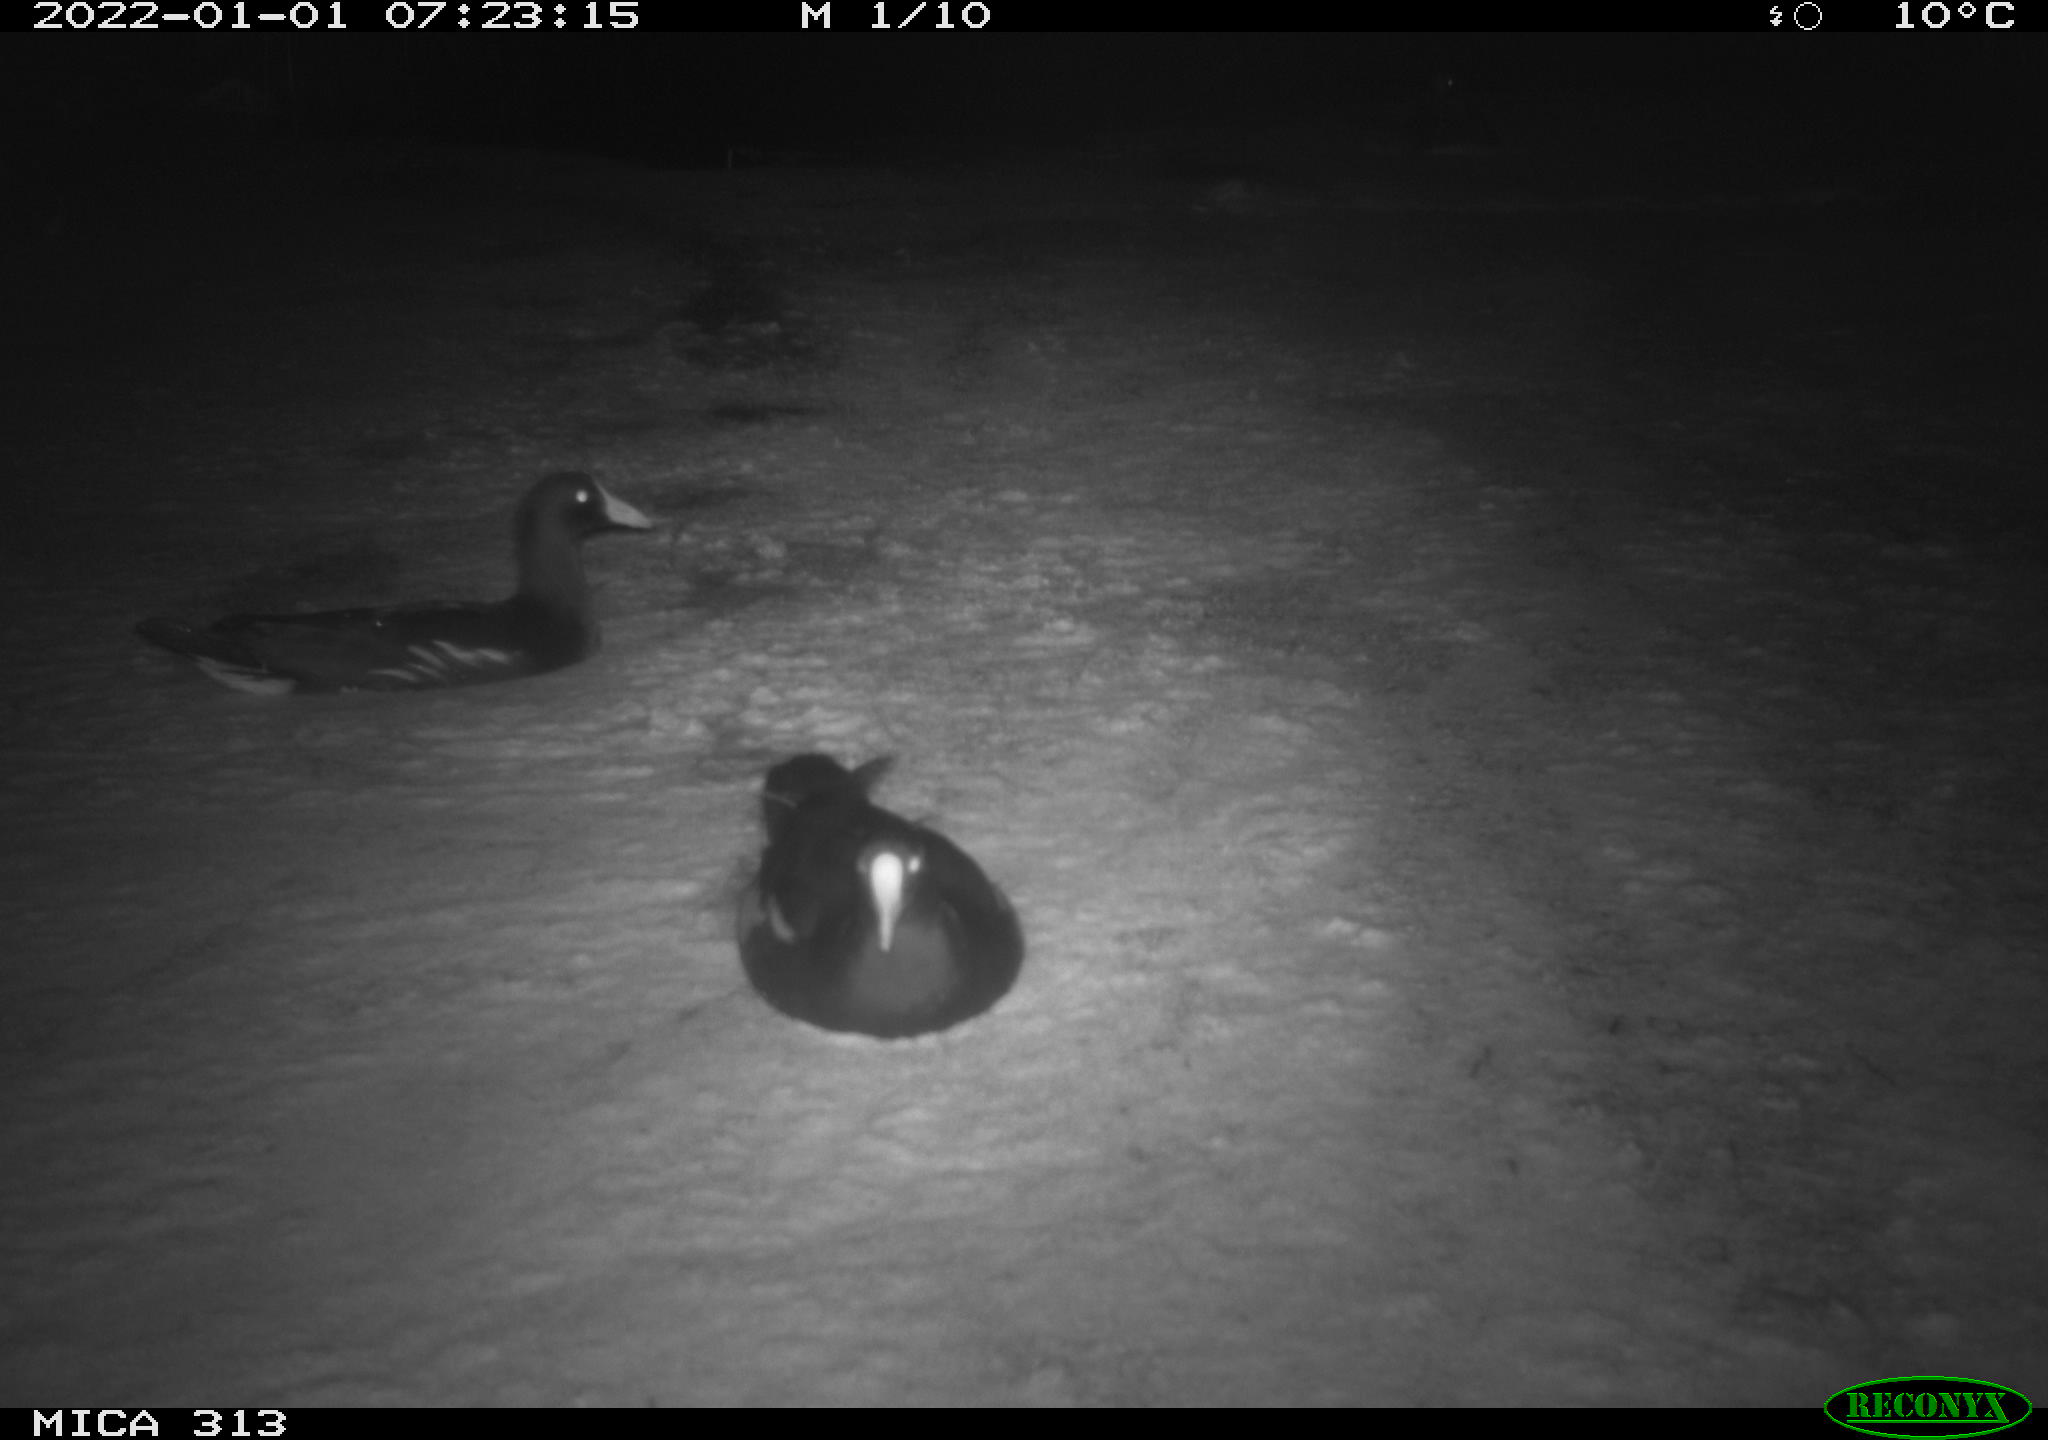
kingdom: Animalia
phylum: Chordata
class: Aves
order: Gruiformes
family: Rallidae
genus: Fulica
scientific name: Fulica atra
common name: Eurasian coot
